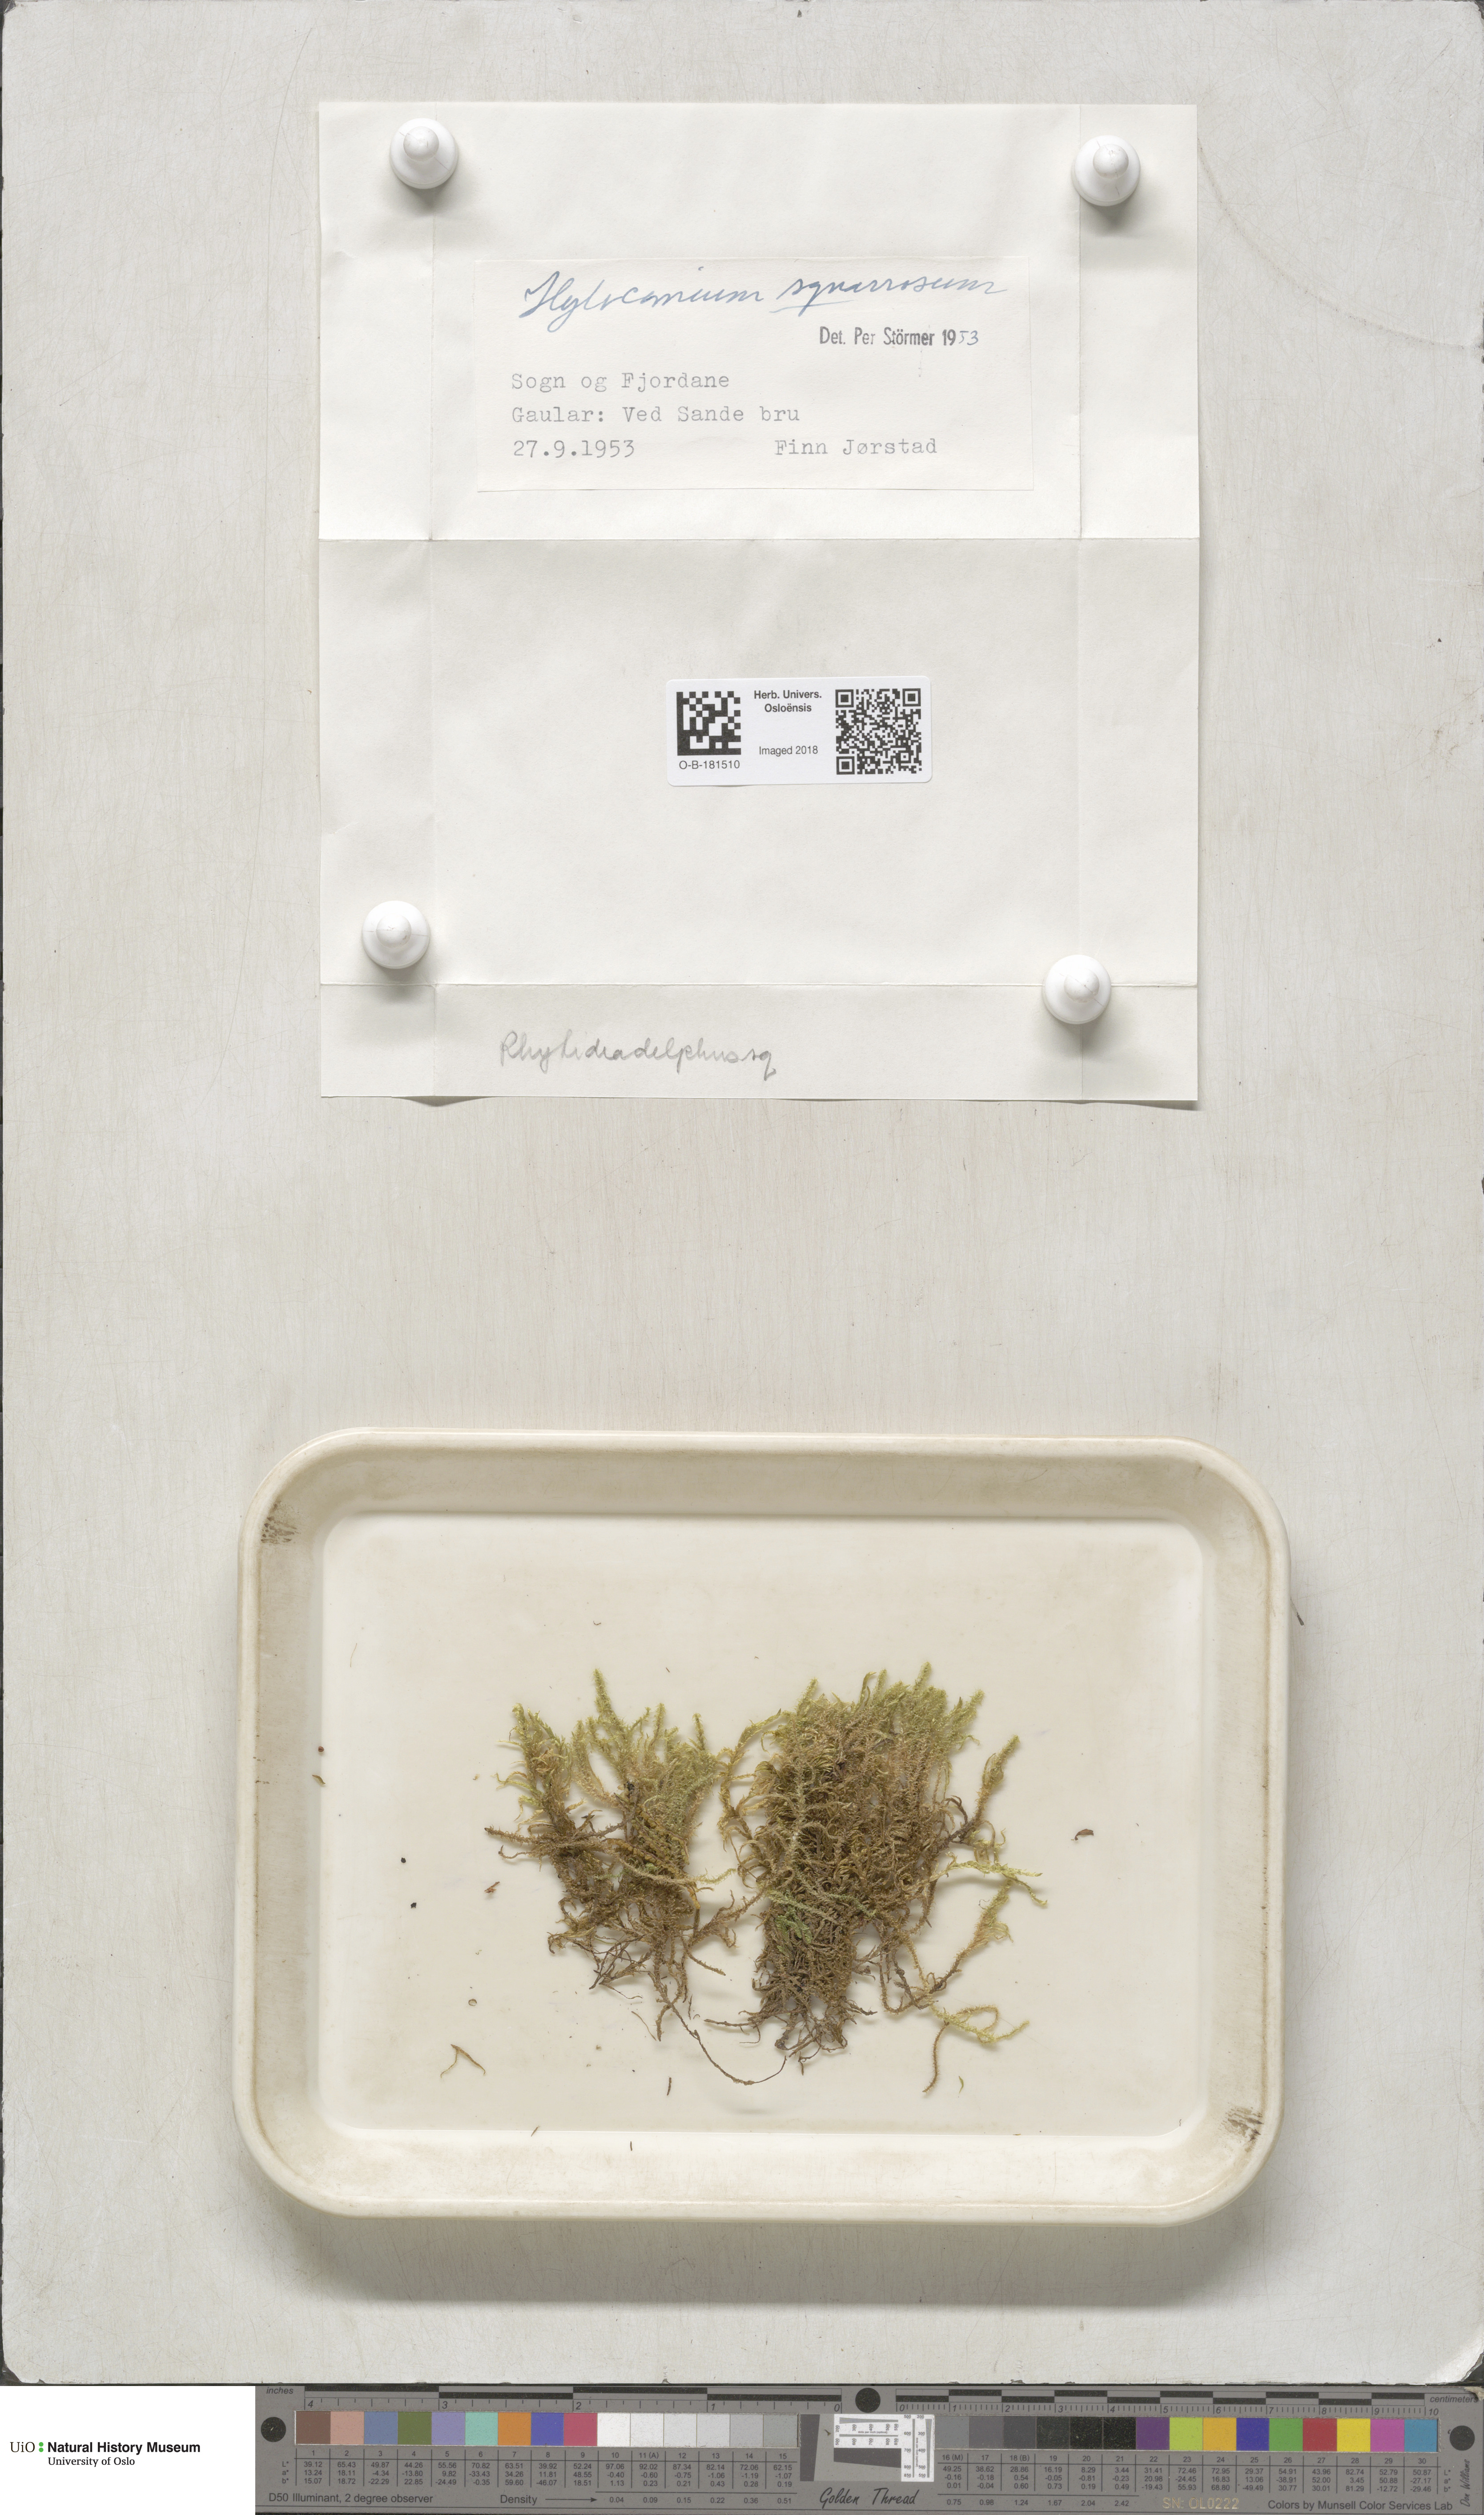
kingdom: Plantae
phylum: Bryophyta
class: Bryopsida
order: Hypnales
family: Hylocomiaceae
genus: Rhytidiadelphus
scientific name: Rhytidiadelphus squarrosus
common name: Springy turf-moss
